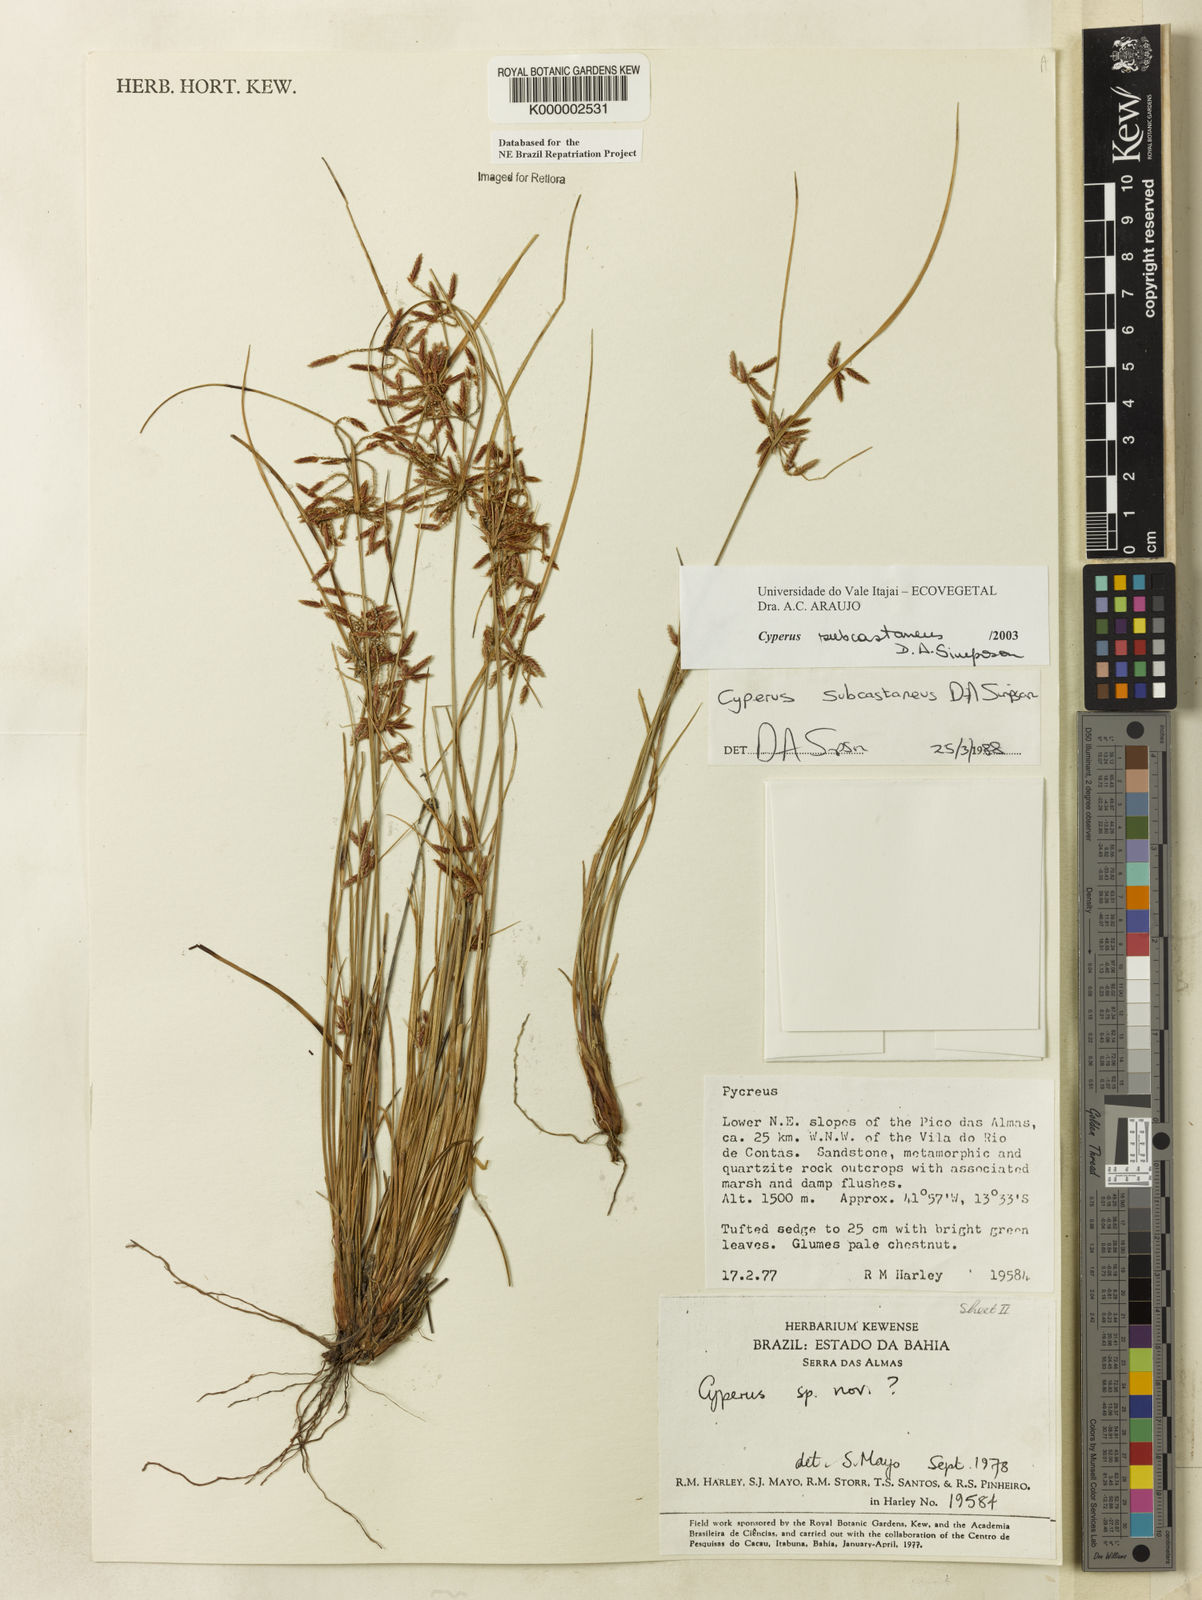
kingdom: Plantae
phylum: Tracheophyta
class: Liliopsida
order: Poales
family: Cyperaceae
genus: Cyperus
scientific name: Cyperus subcastaneus
